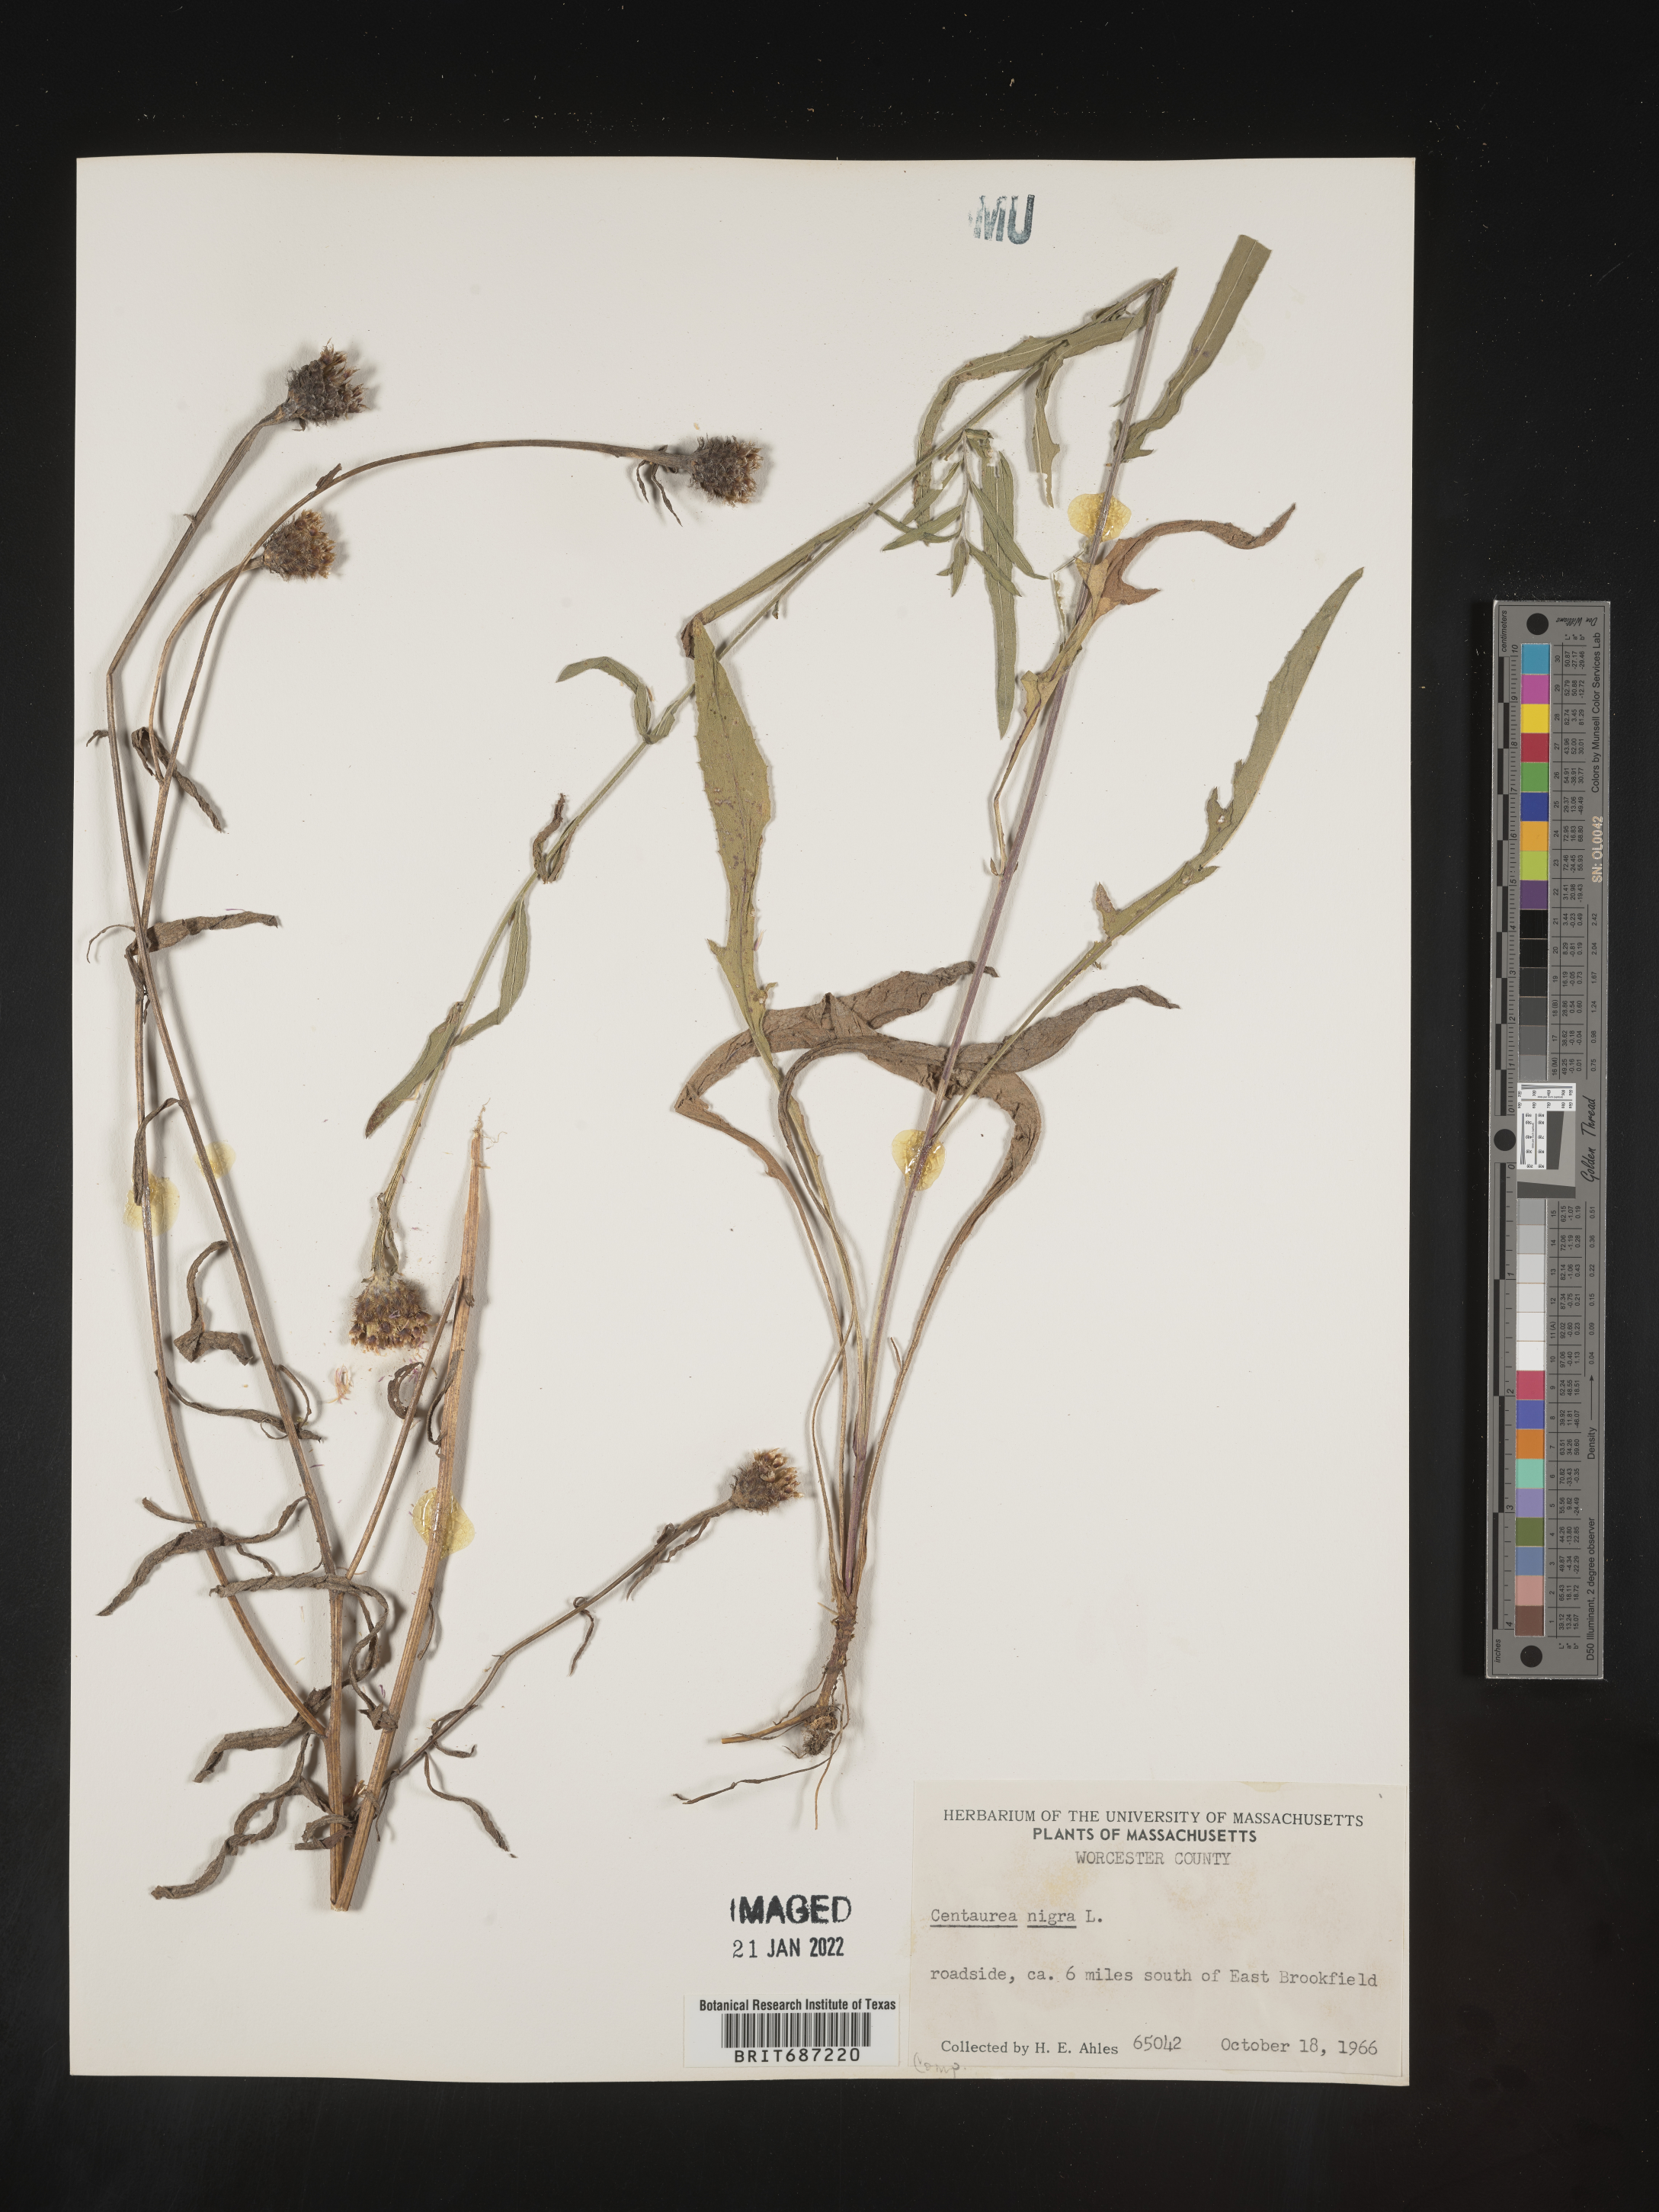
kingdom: Plantae
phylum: Tracheophyta
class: Magnoliopsida
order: Asterales
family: Asteraceae
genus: Centaurea
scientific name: Centaurea nigra
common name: Lesser knapweed
